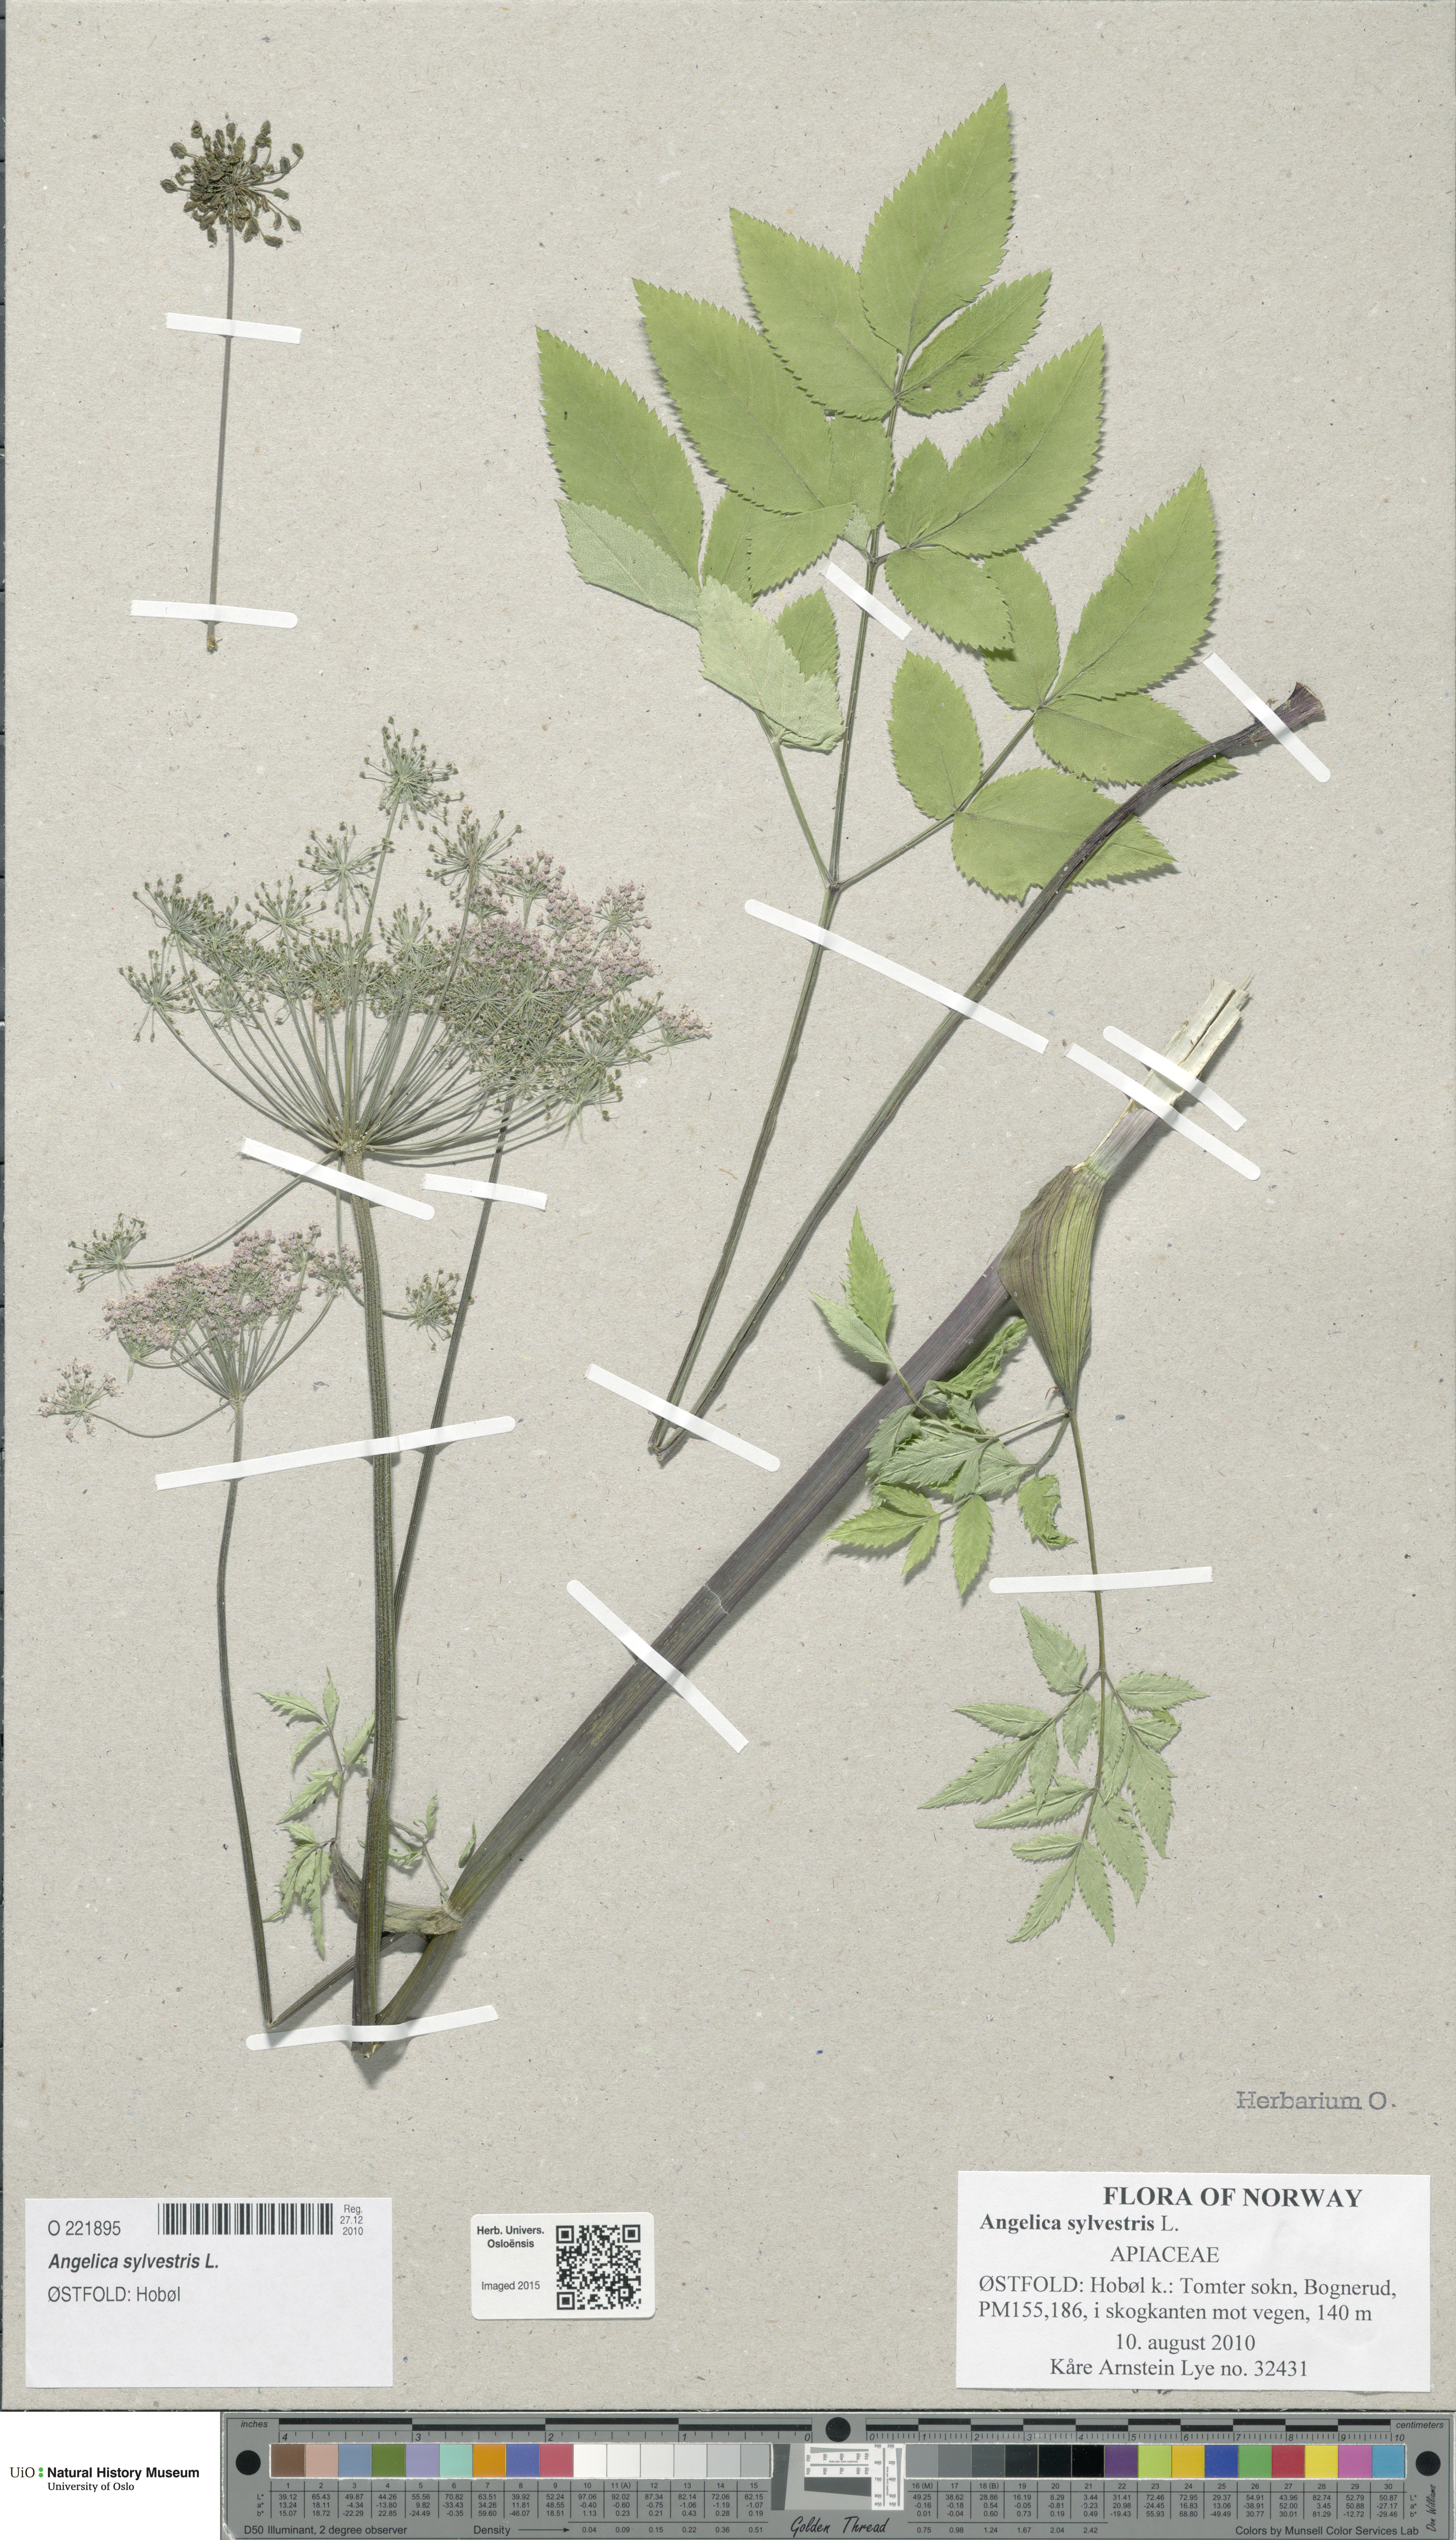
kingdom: Plantae
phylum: Tracheophyta
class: Magnoliopsida
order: Apiales
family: Apiaceae
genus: Angelica
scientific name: Angelica sylvestris
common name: Wild angelica
